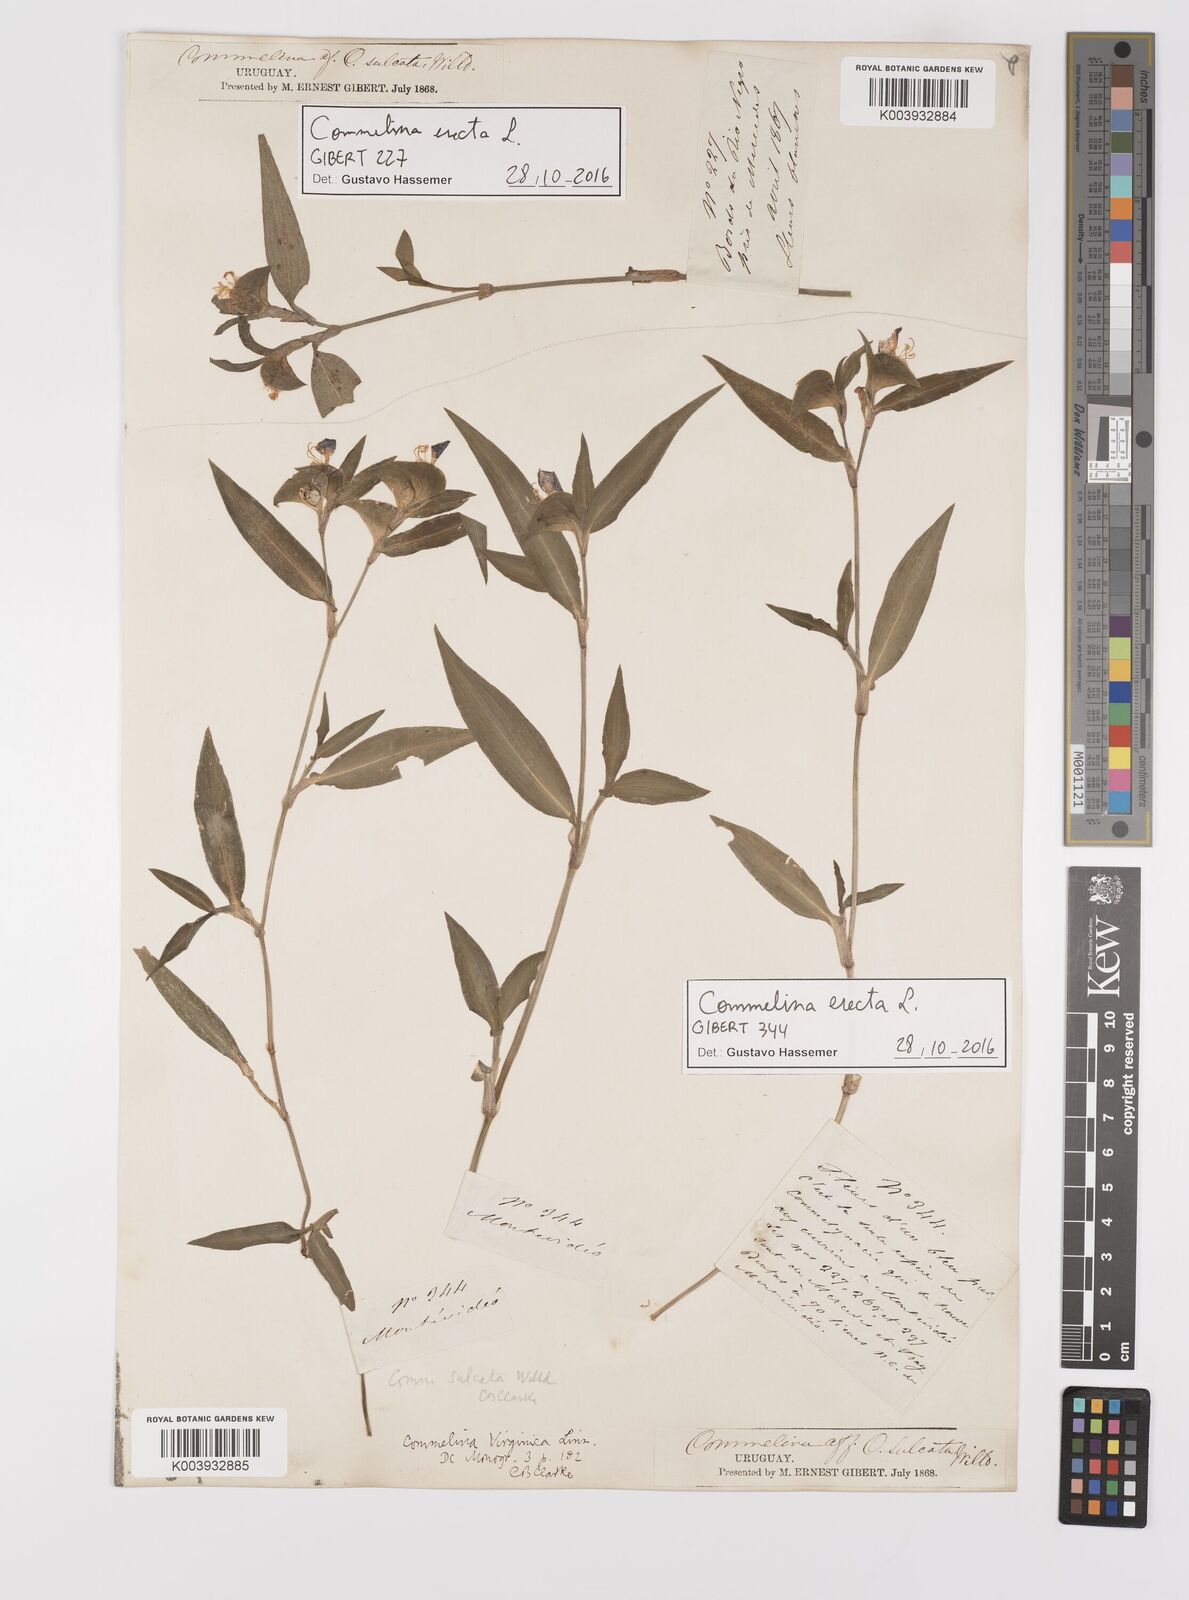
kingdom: Plantae
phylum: Tracheophyta
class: Liliopsida
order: Commelinales
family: Commelinaceae
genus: Commelina
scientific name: Commelina erecta
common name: Blousel blommetjie
